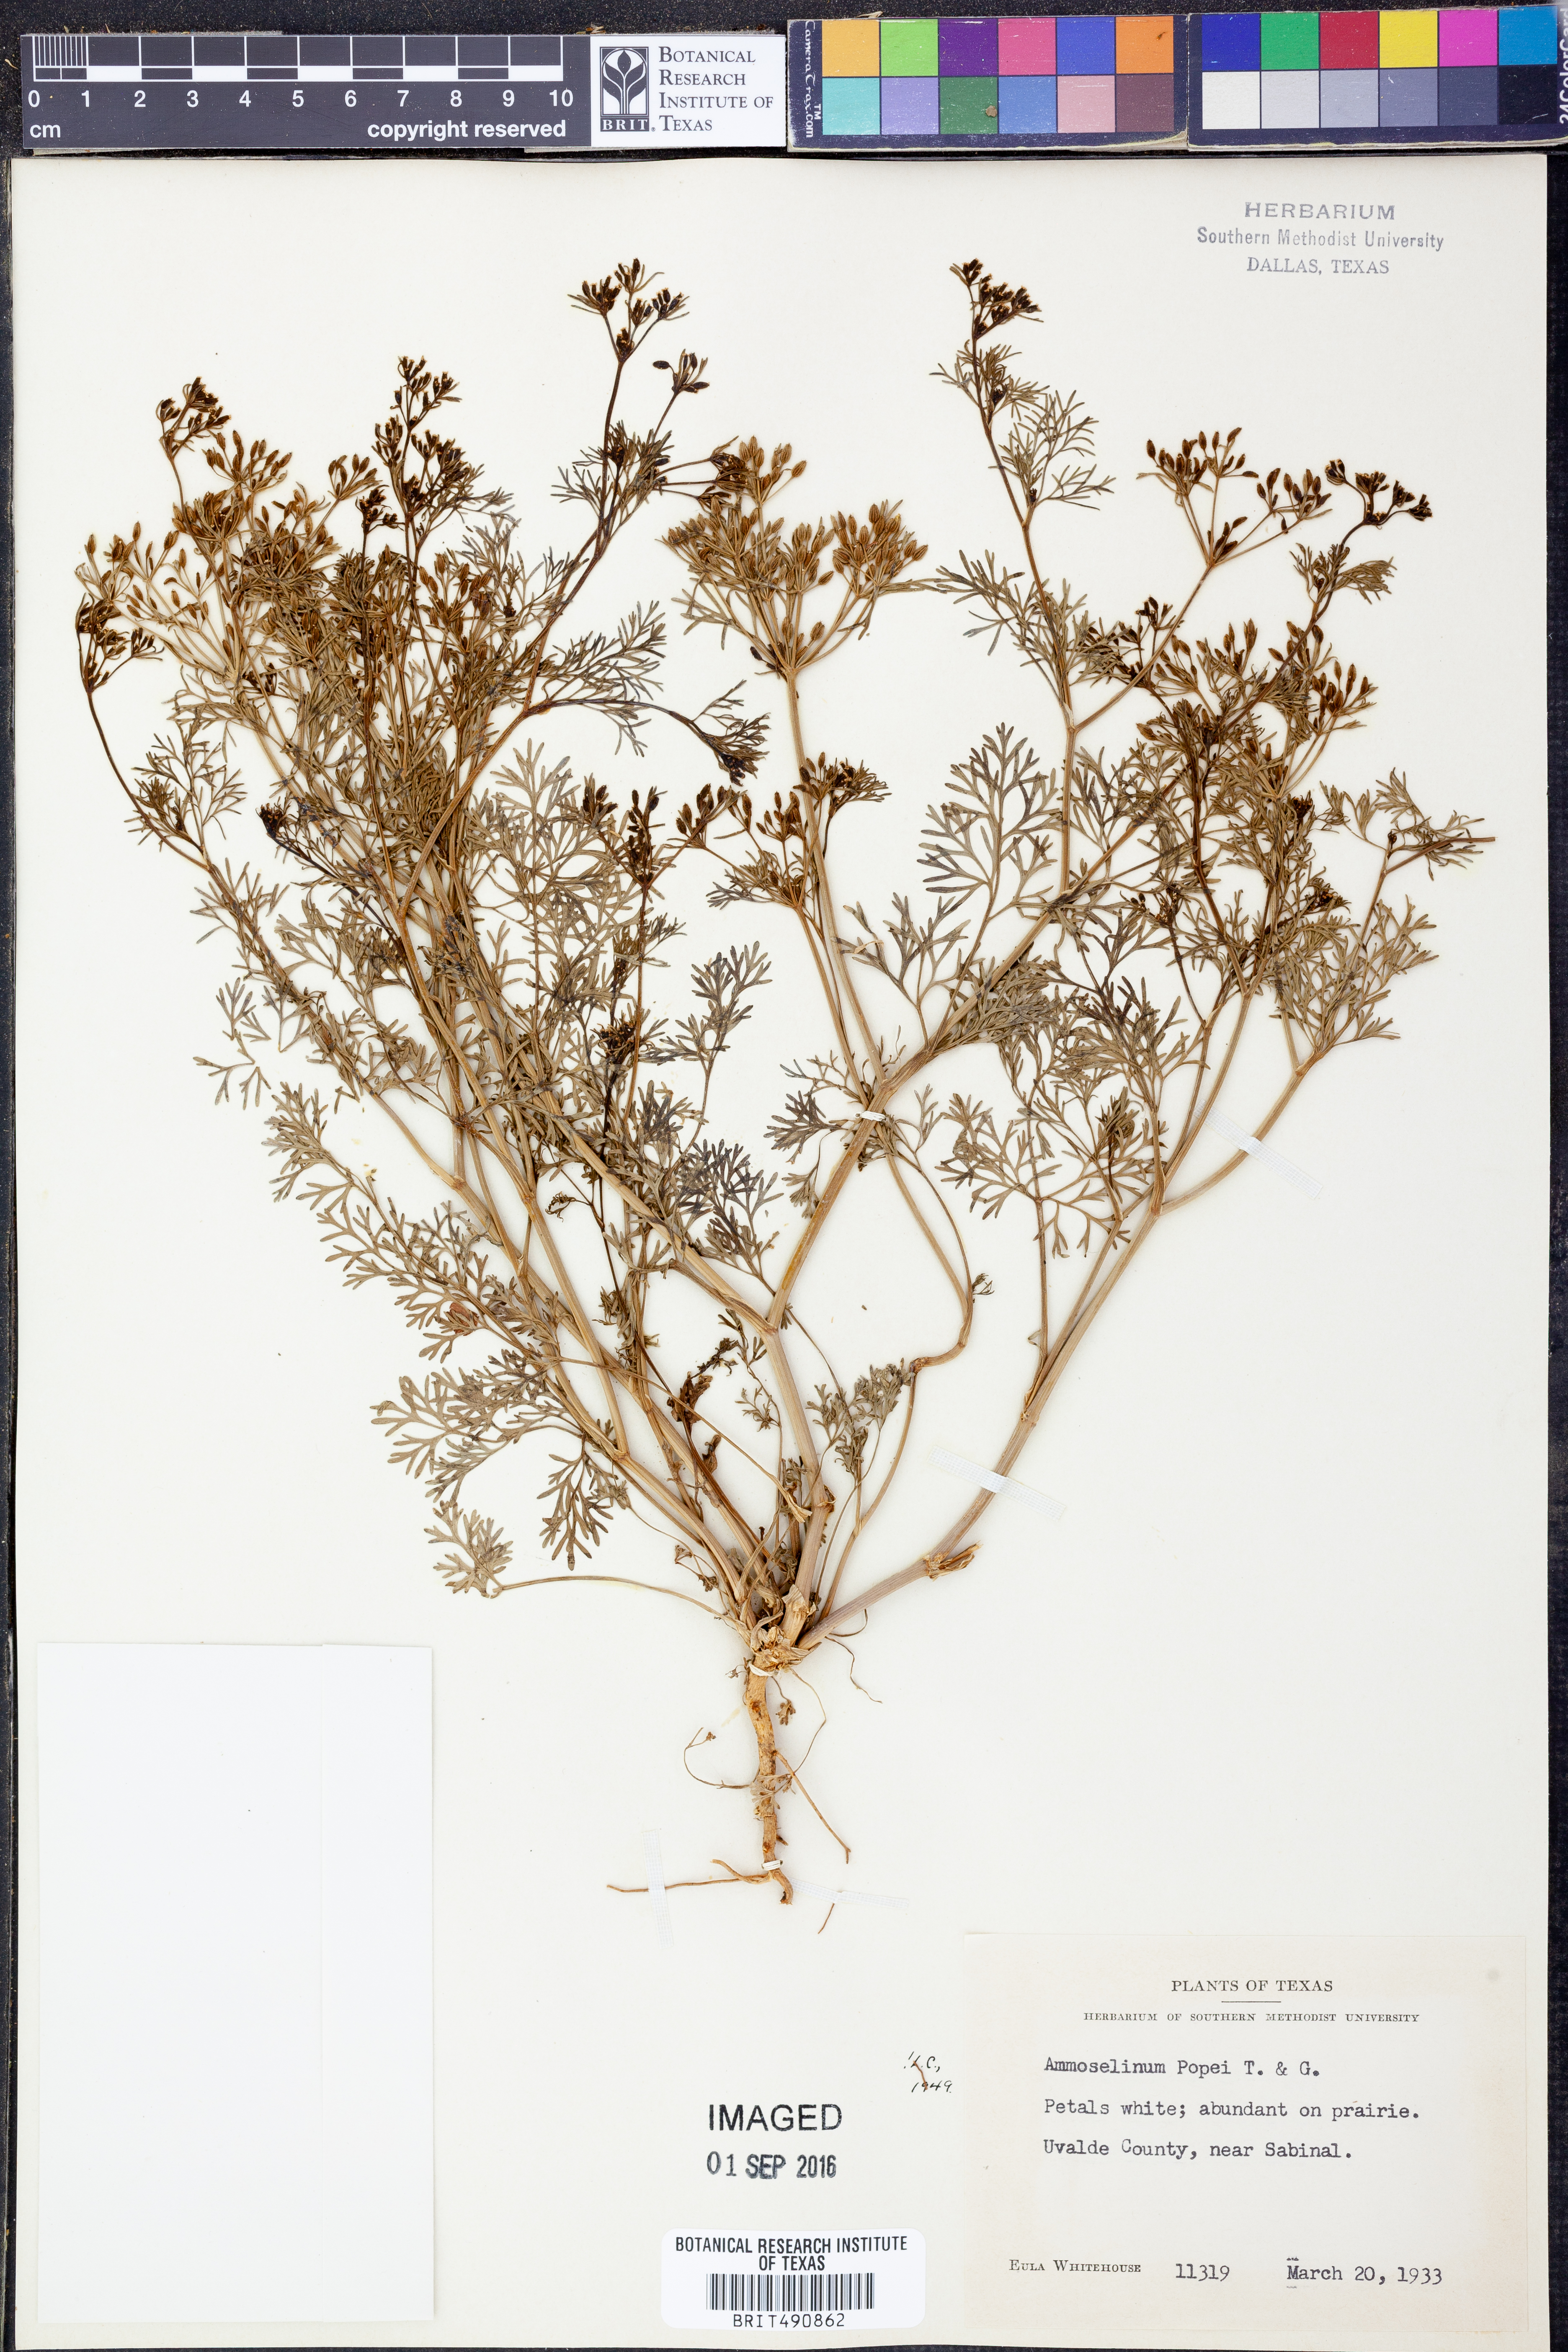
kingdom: Plantae
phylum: Tracheophyta
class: Magnoliopsida
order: Apiales
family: Apiaceae
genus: Ammoselinum
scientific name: Ammoselinum popei
